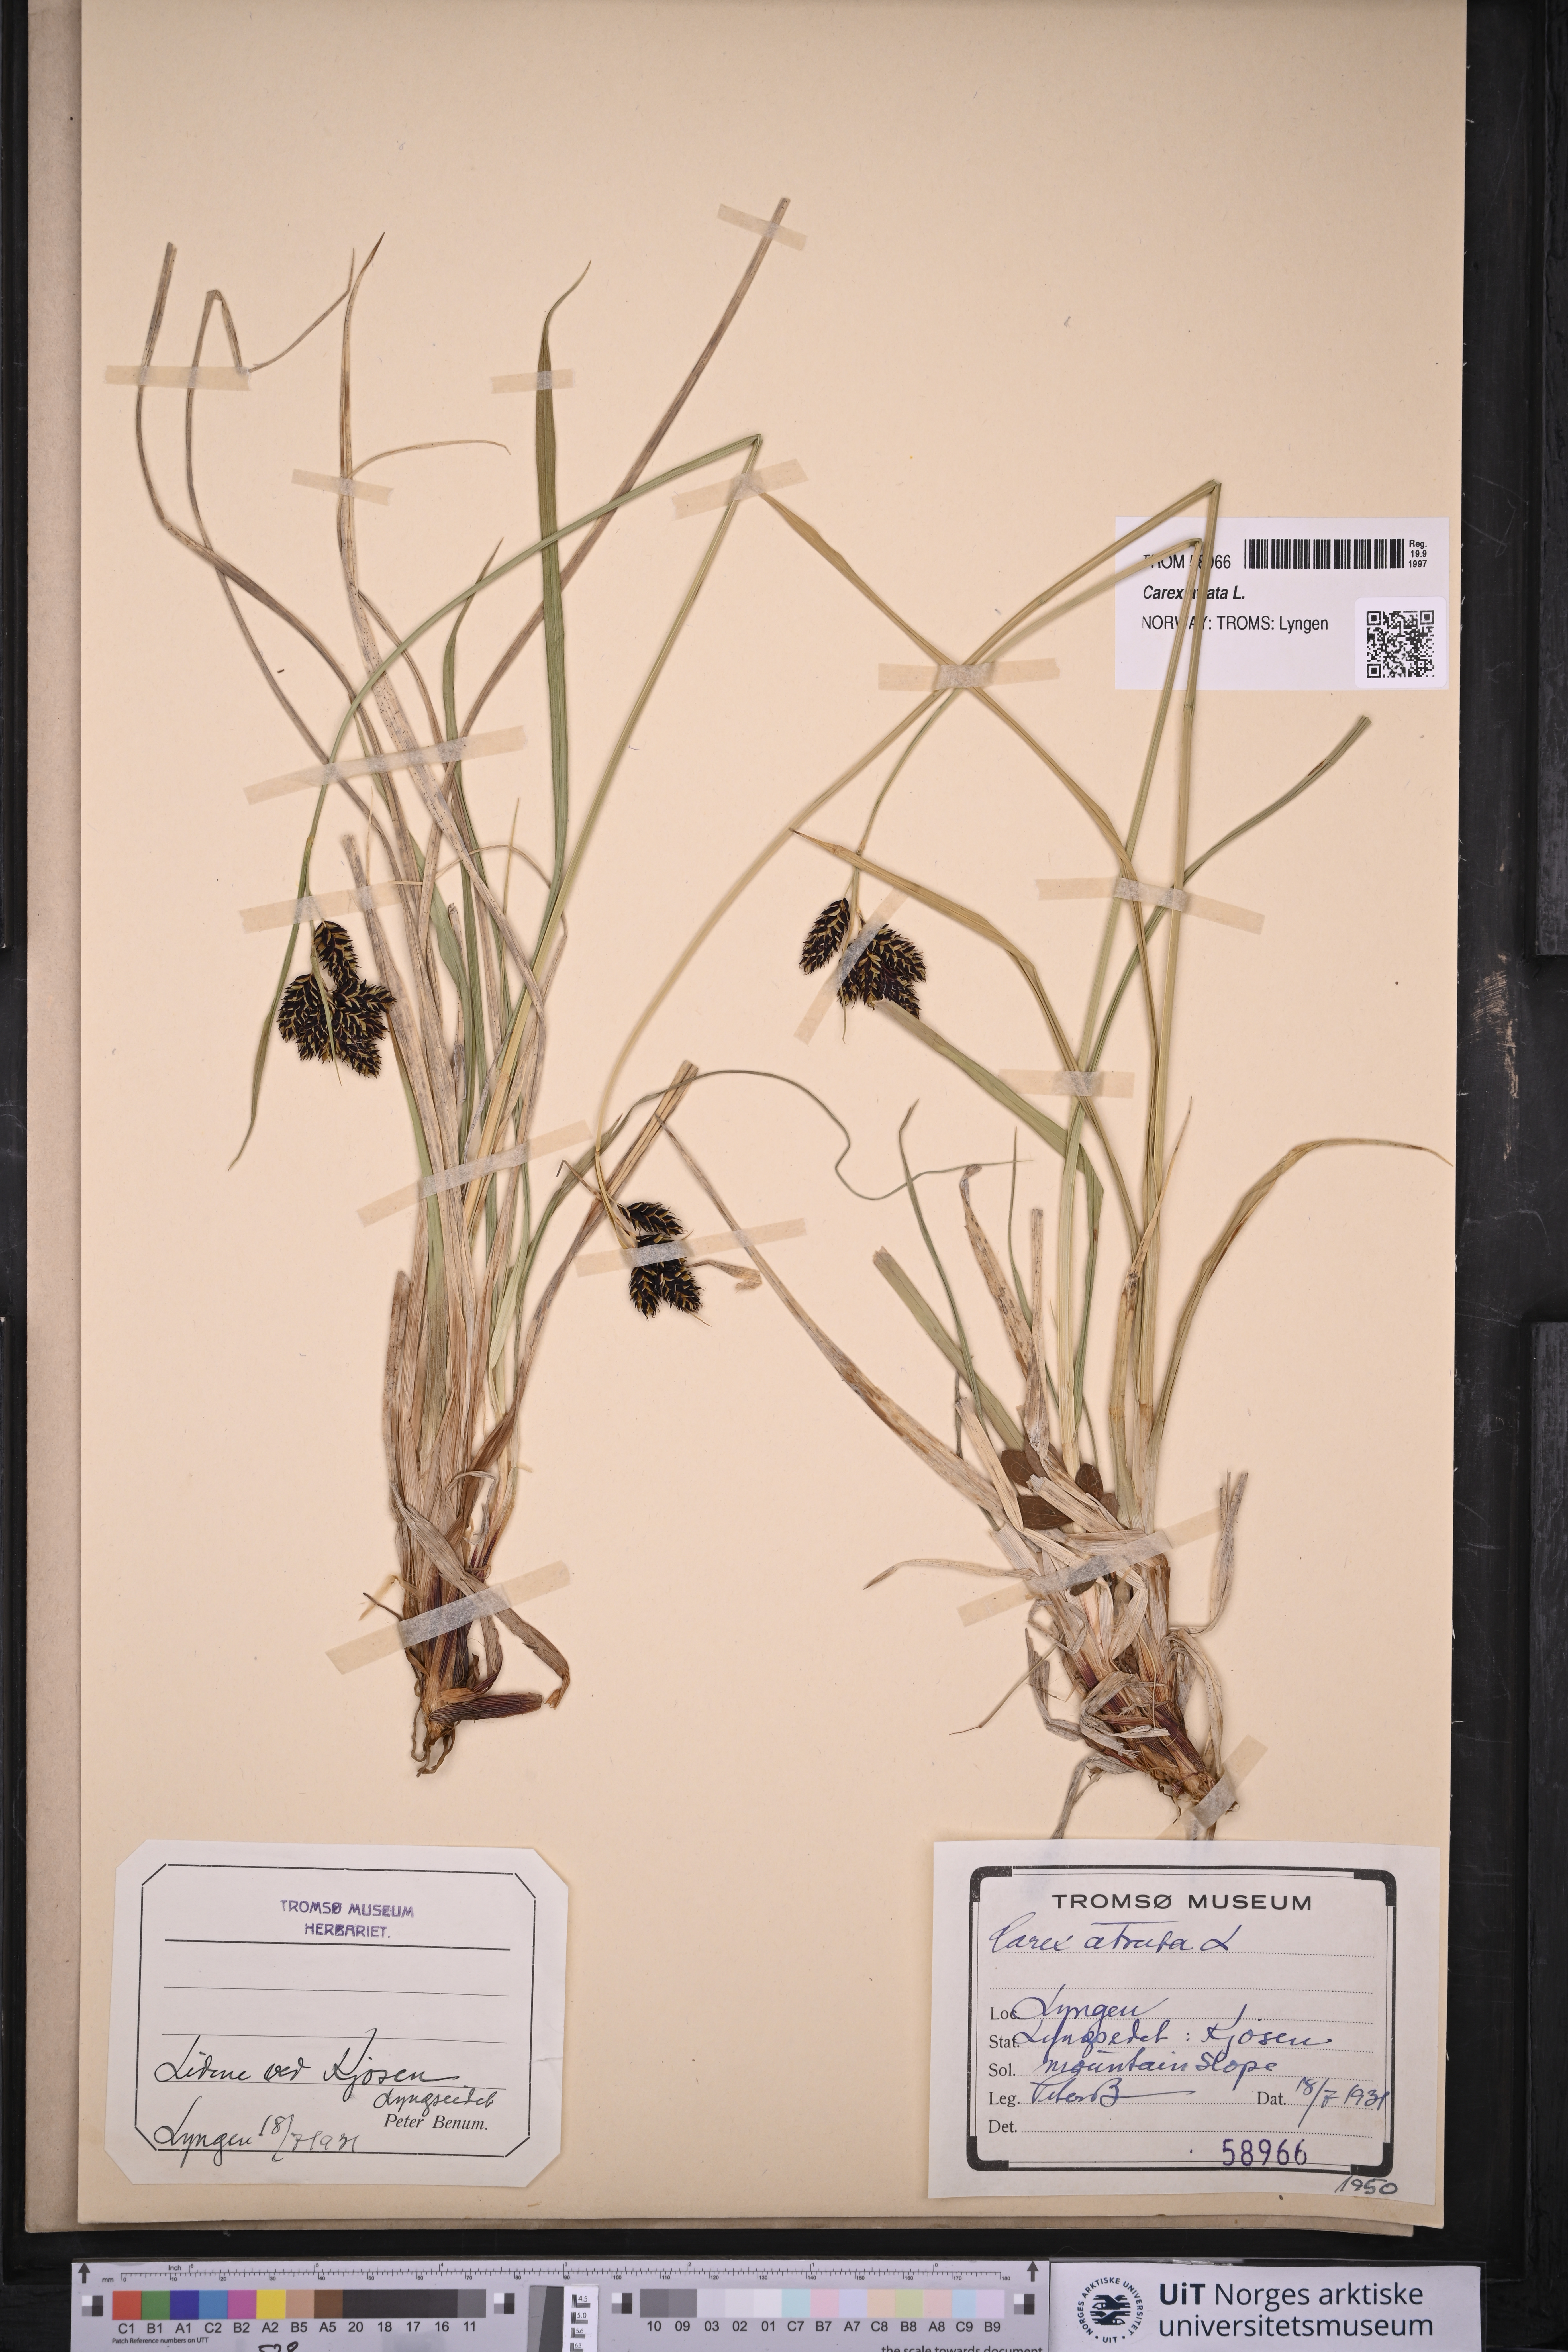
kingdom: Plantae
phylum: Tracheophyta
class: Liliopsida
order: Poales
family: Cyperaceae
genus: Carex
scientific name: Carex atrata
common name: Black alpine sedge
